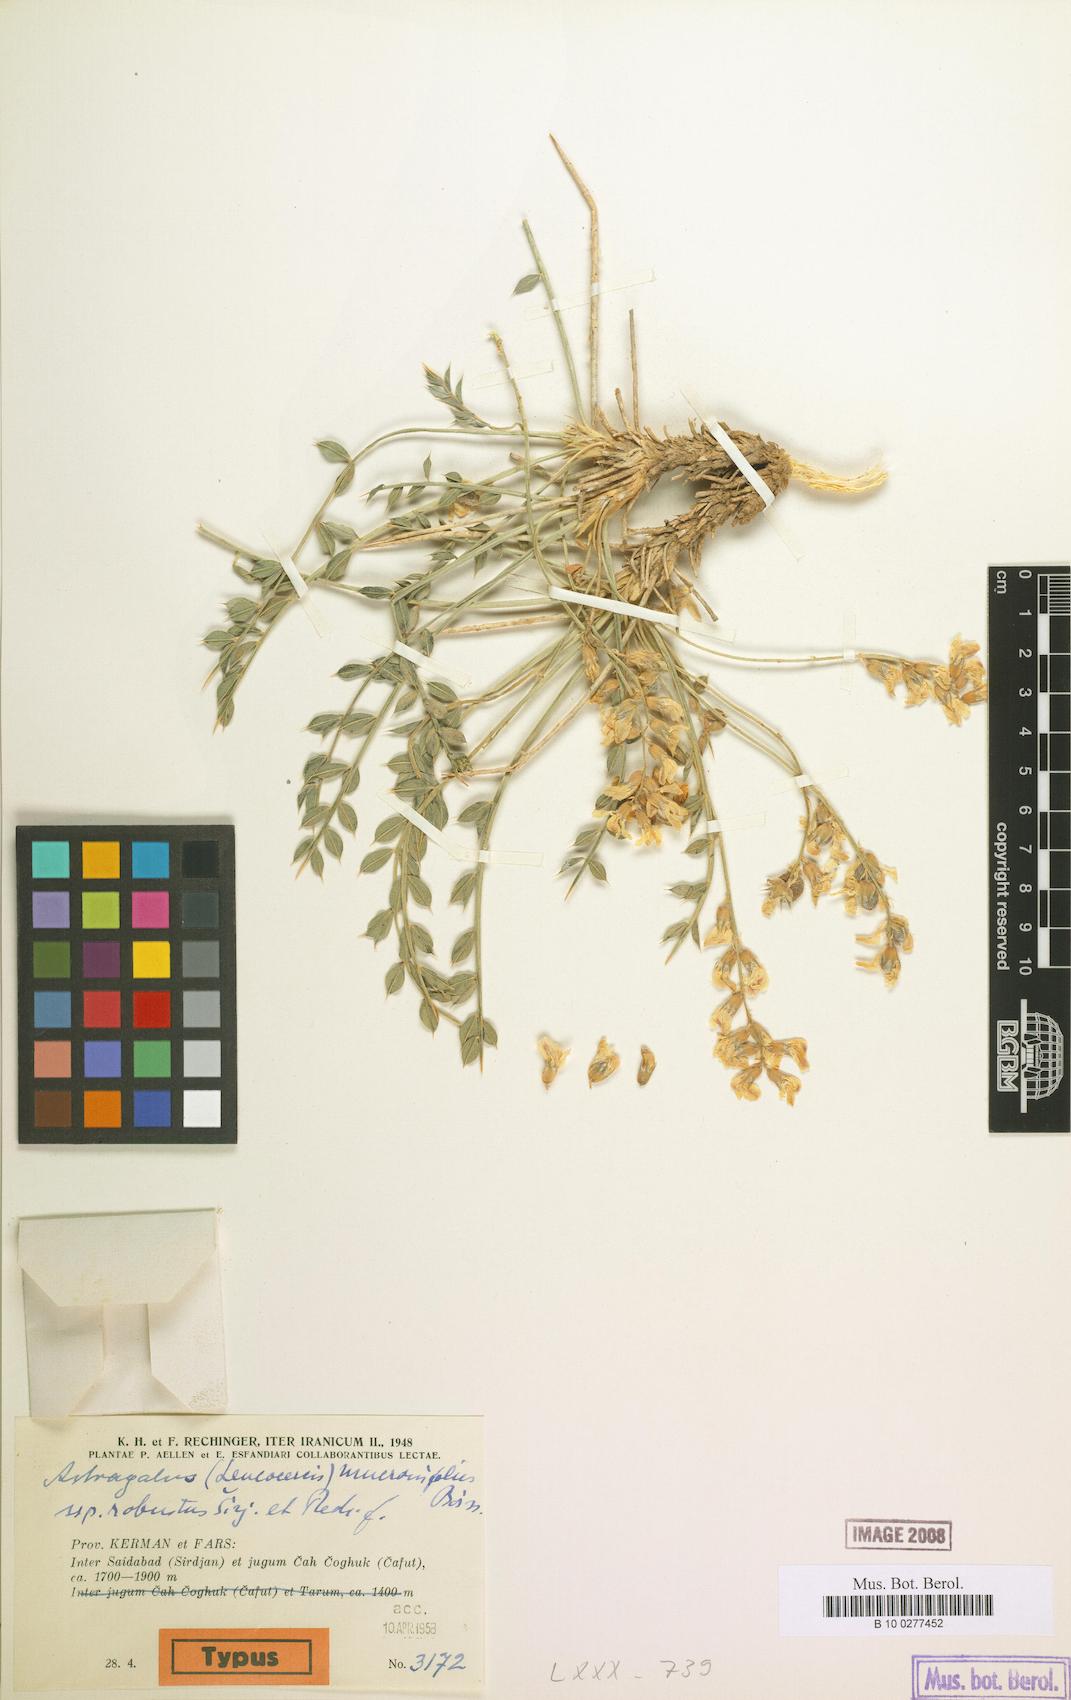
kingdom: Plantae
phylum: Tracheophyta
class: Magnoliopsida
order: Fabales
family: Fabaceae
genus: Astragalus
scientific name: Astragalus ovoideus
